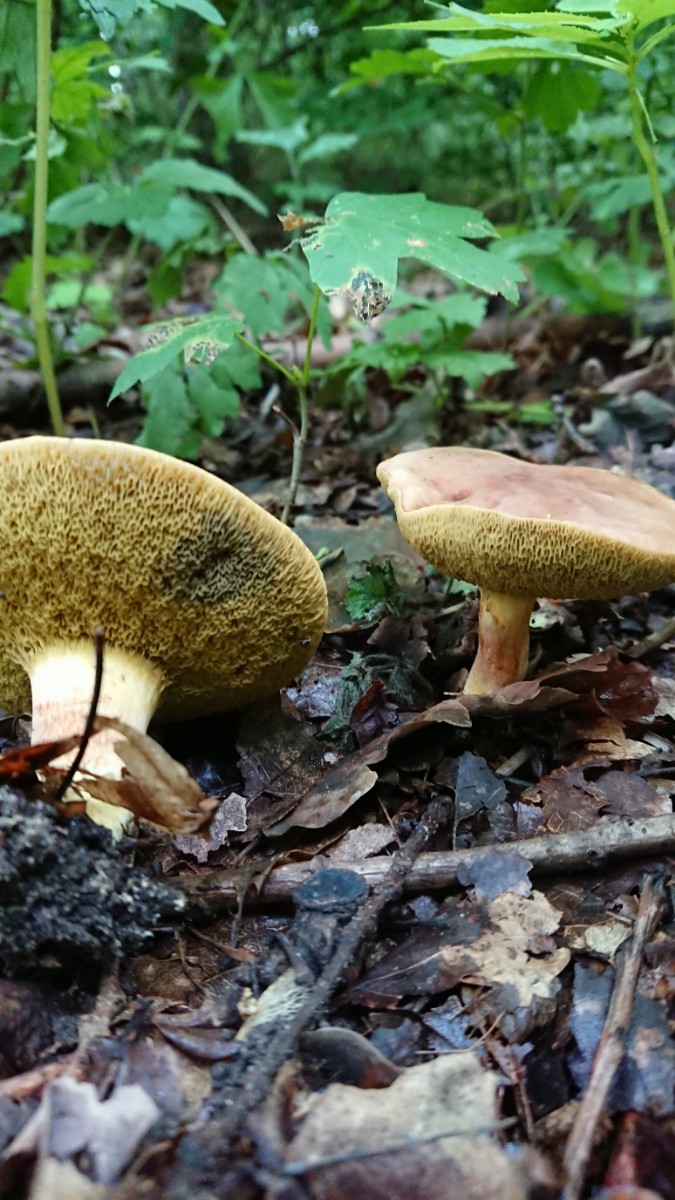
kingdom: Fungi
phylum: Basidiomycota
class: Agaricomycetes
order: Boletales
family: Boletaceae
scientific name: Boletaceae
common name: rørhatfamilien
